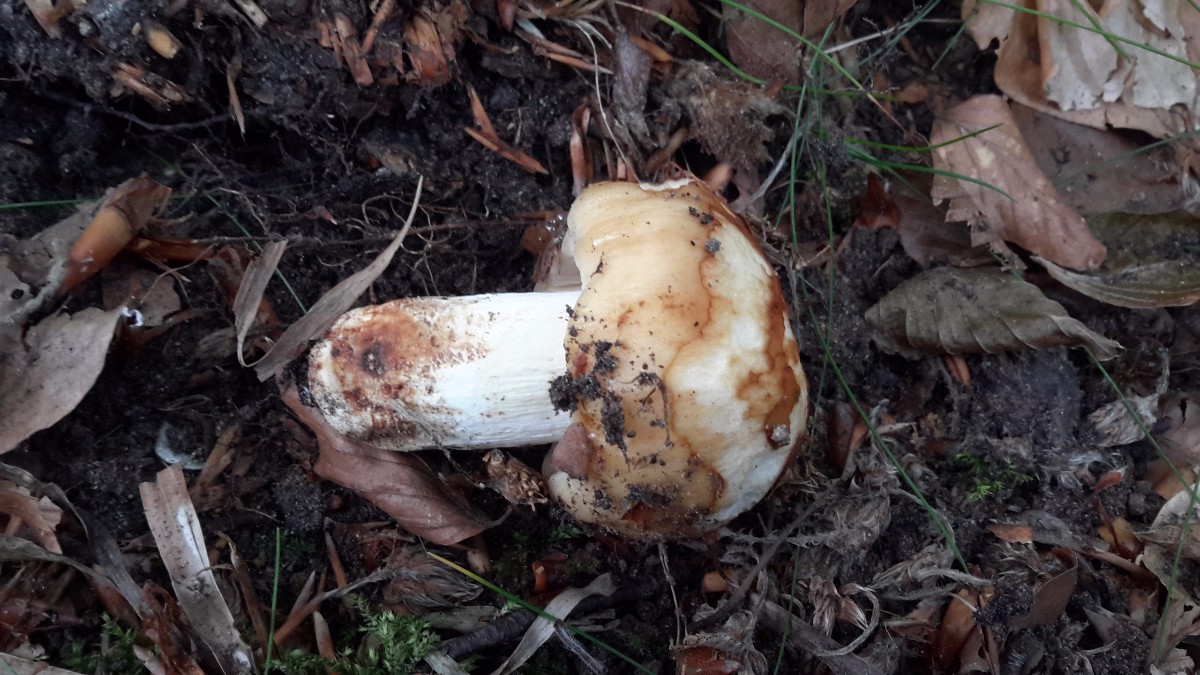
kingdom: Fungi
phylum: Basidiomycota
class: Agaricomycetes
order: Russulales
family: Russulaceae
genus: Russula
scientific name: Russula grata
